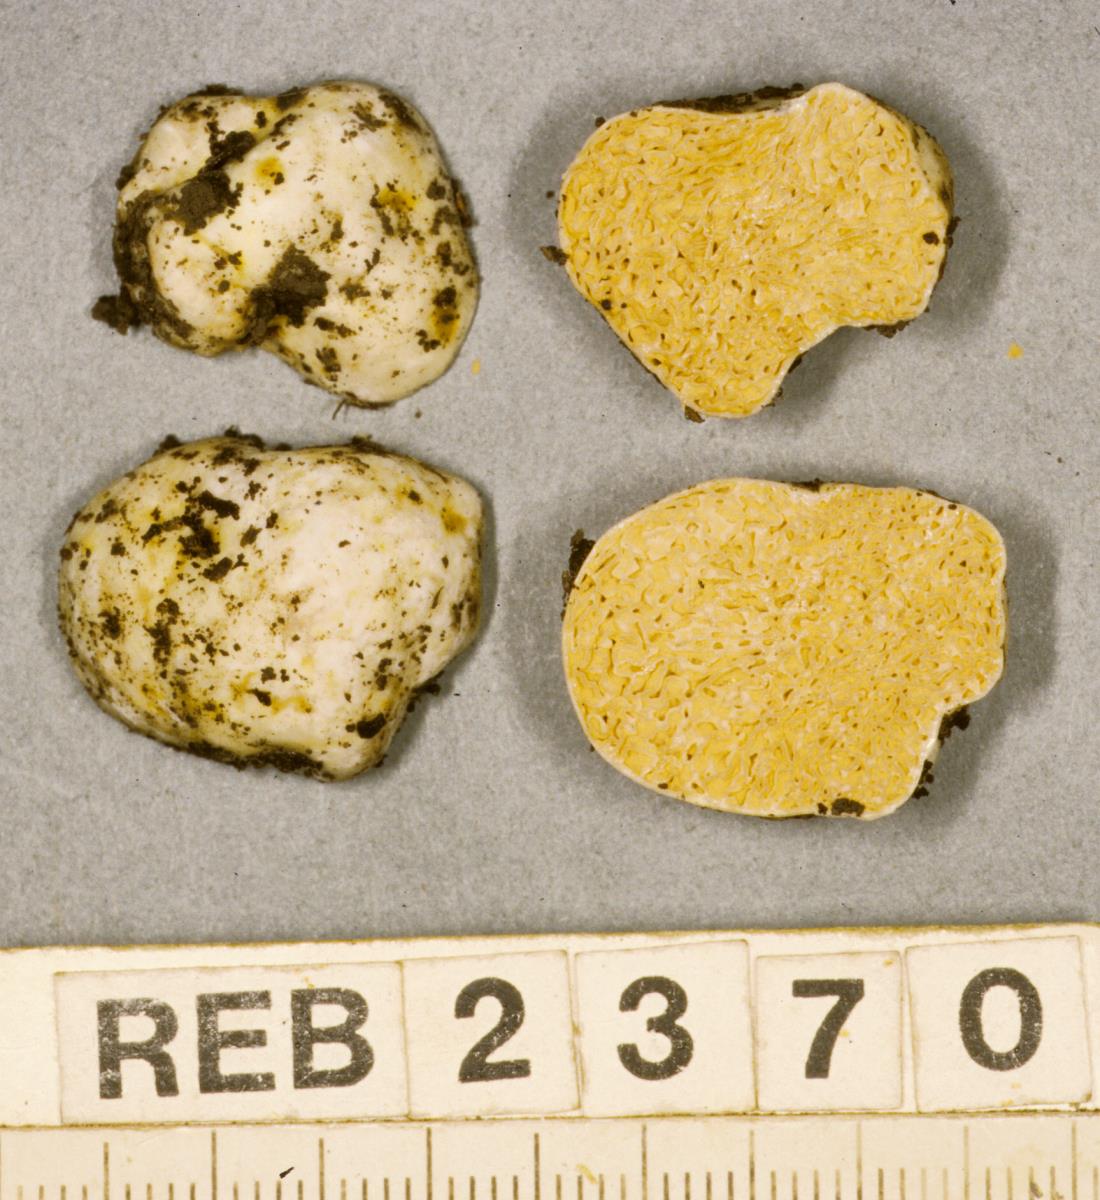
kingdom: Fungi
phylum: Basidiomycota
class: Agaricomycetes
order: Russulales
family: Russulaceae
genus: Zelleromyces
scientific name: Zelleromyces
